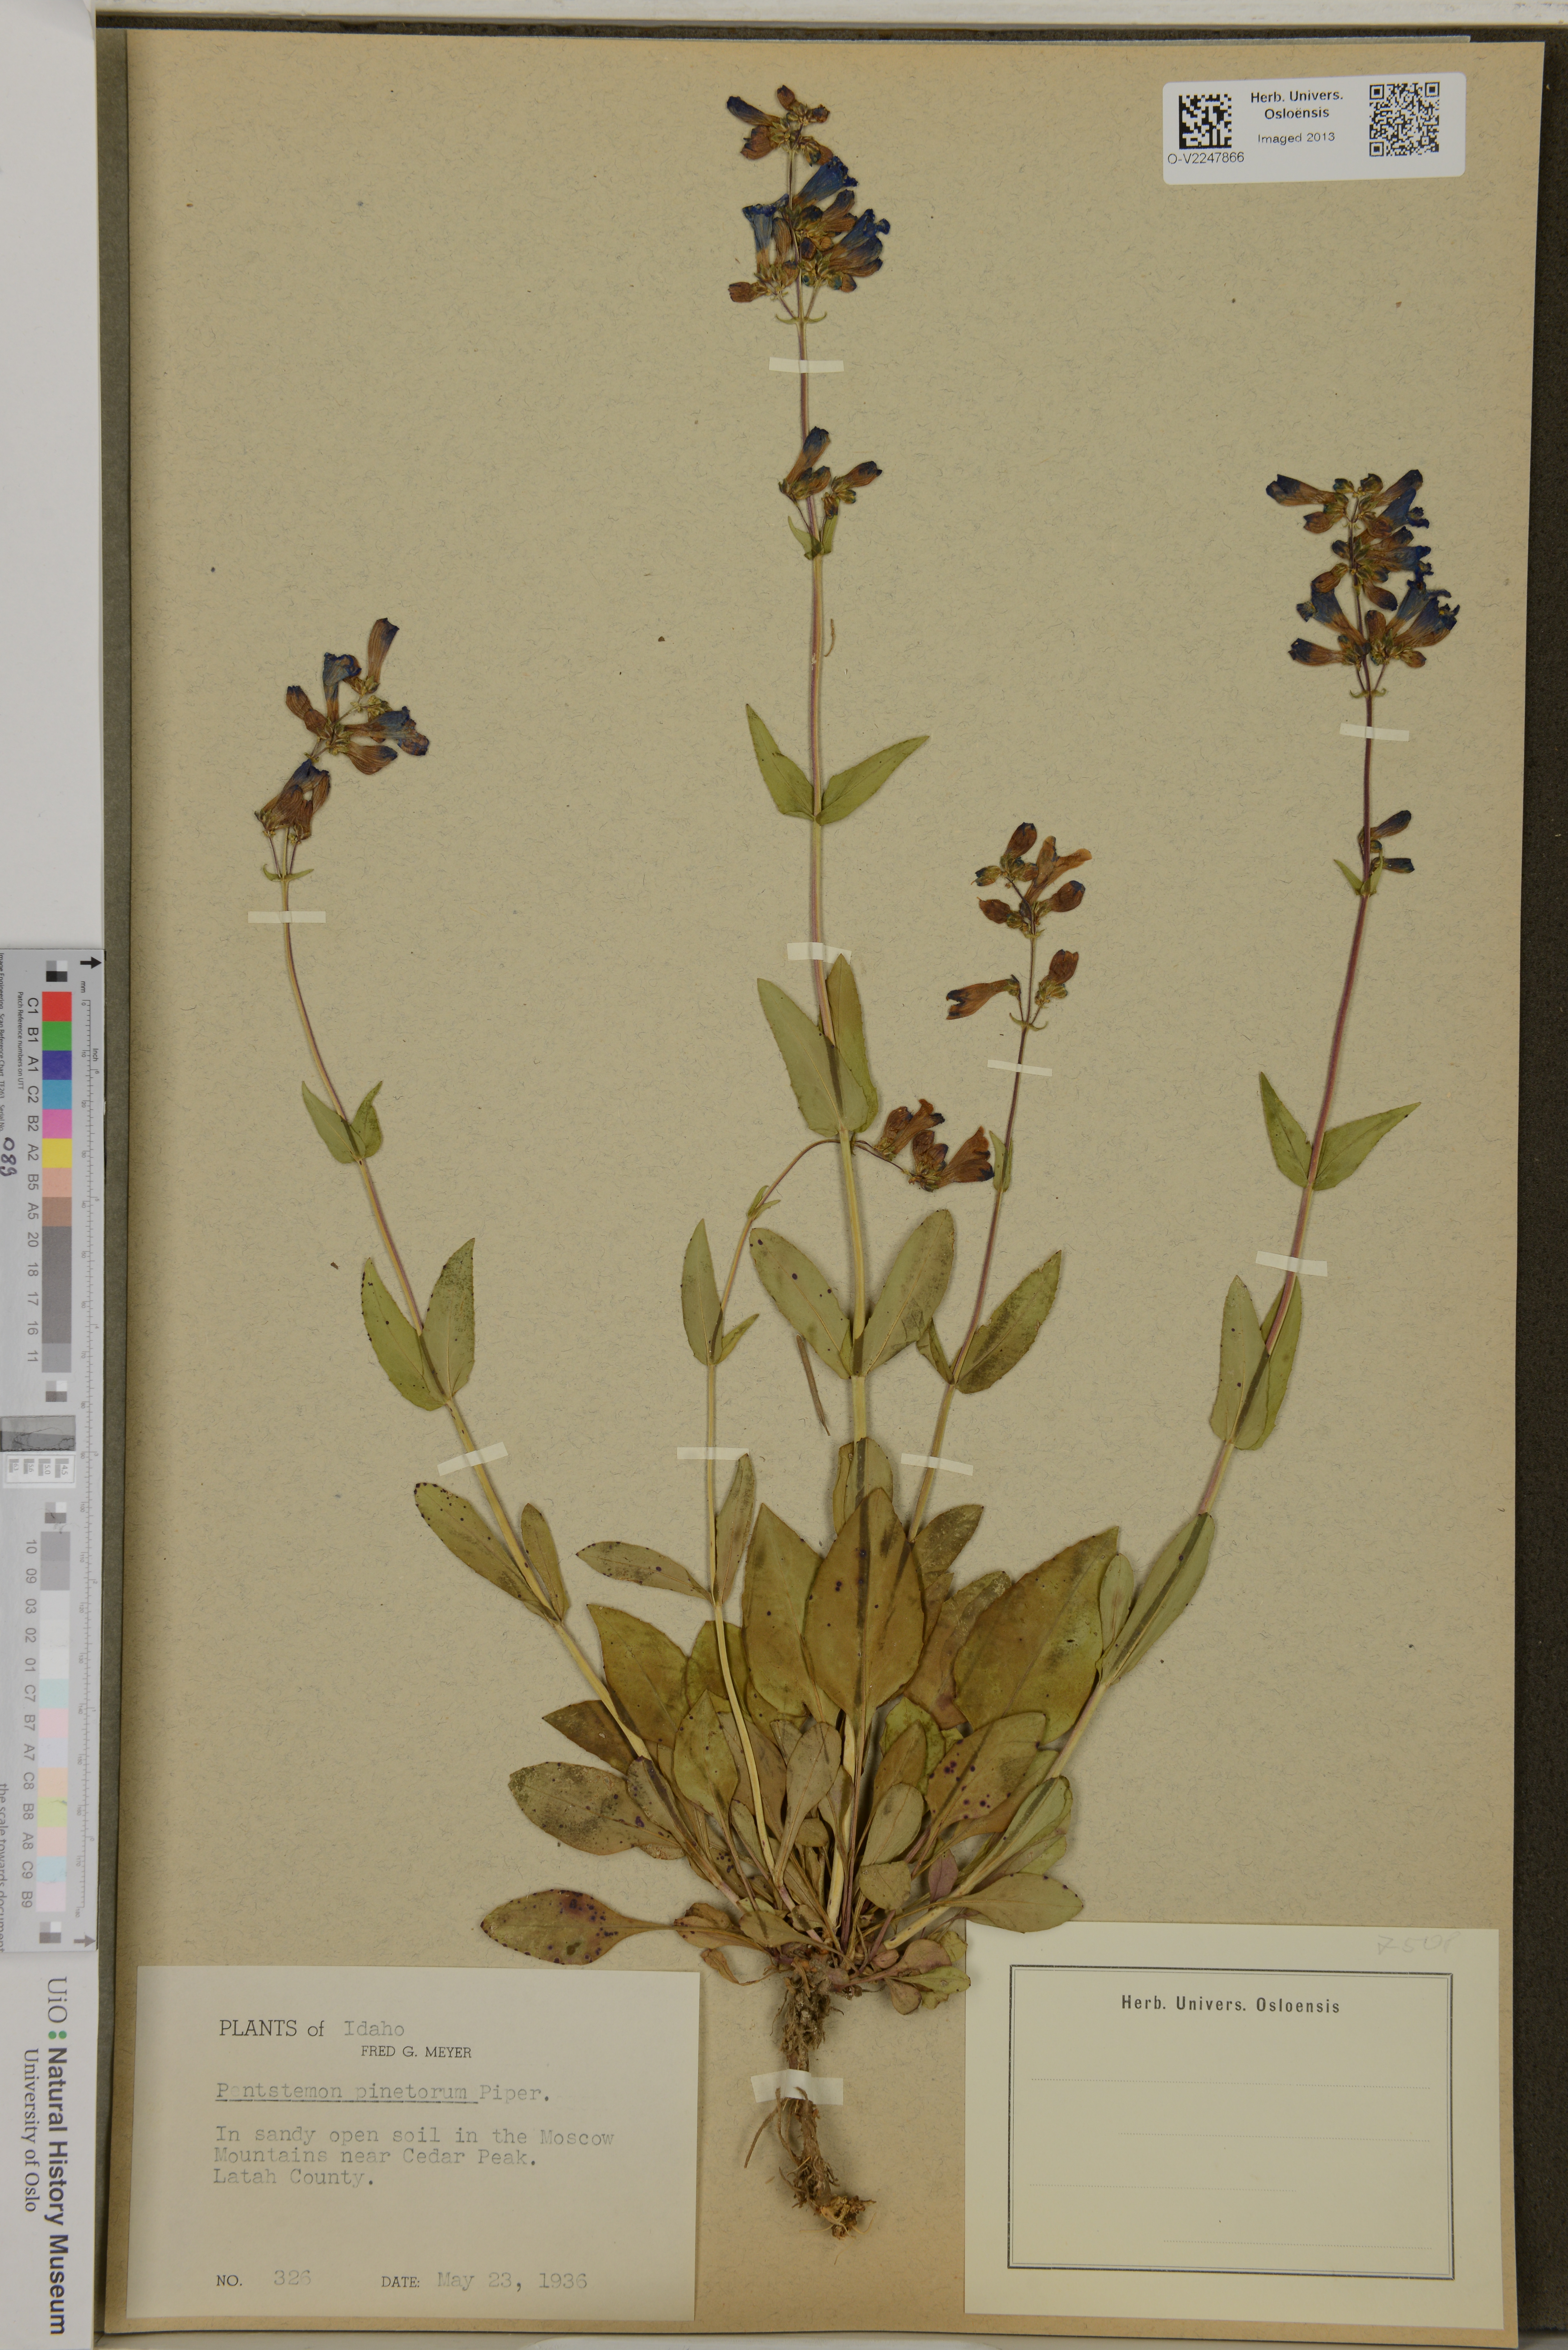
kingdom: Plantae
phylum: Tracheophyta
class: Magnoliopsida
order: Lamiales
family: Plantaginaceae
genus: Penstemon
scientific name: Penstemon wilcoxii
